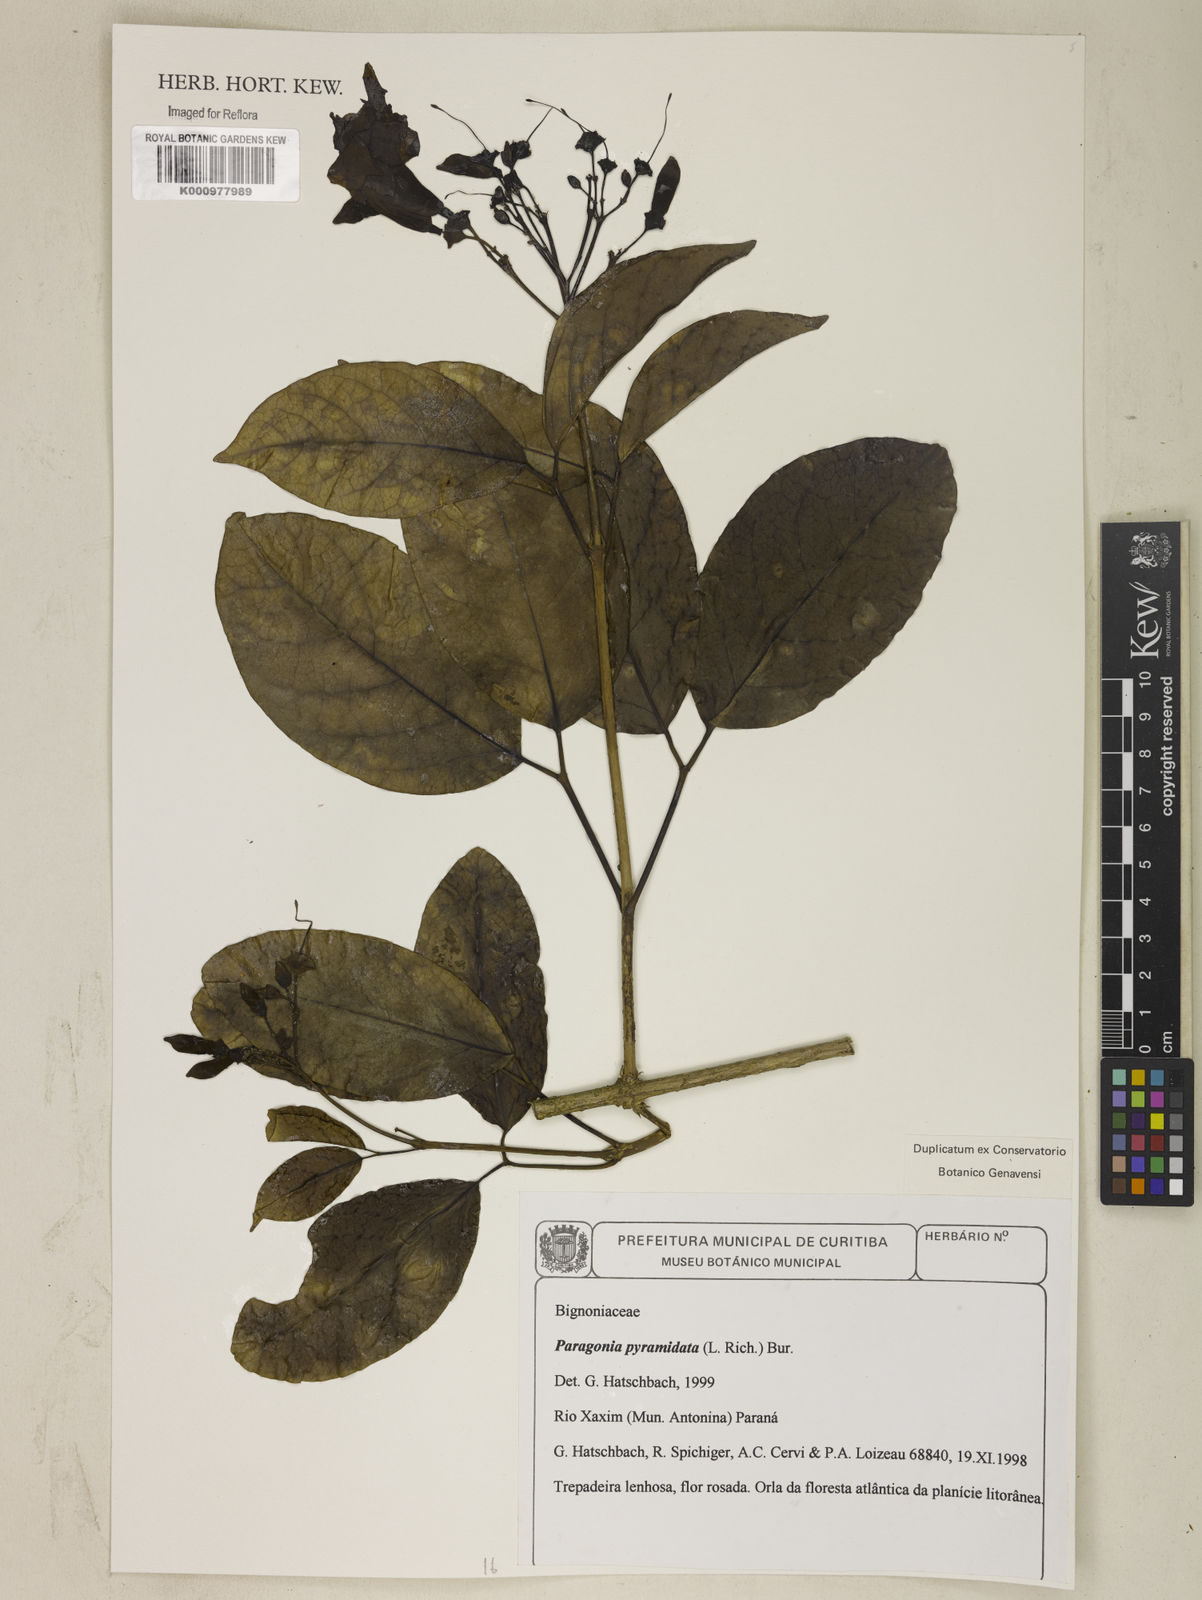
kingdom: Plantae
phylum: Tracheophyta
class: Magnoliopsida
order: Lamiales
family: Bignoniaceae
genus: Tanaecium
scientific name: Tanaecium pyramidatum
